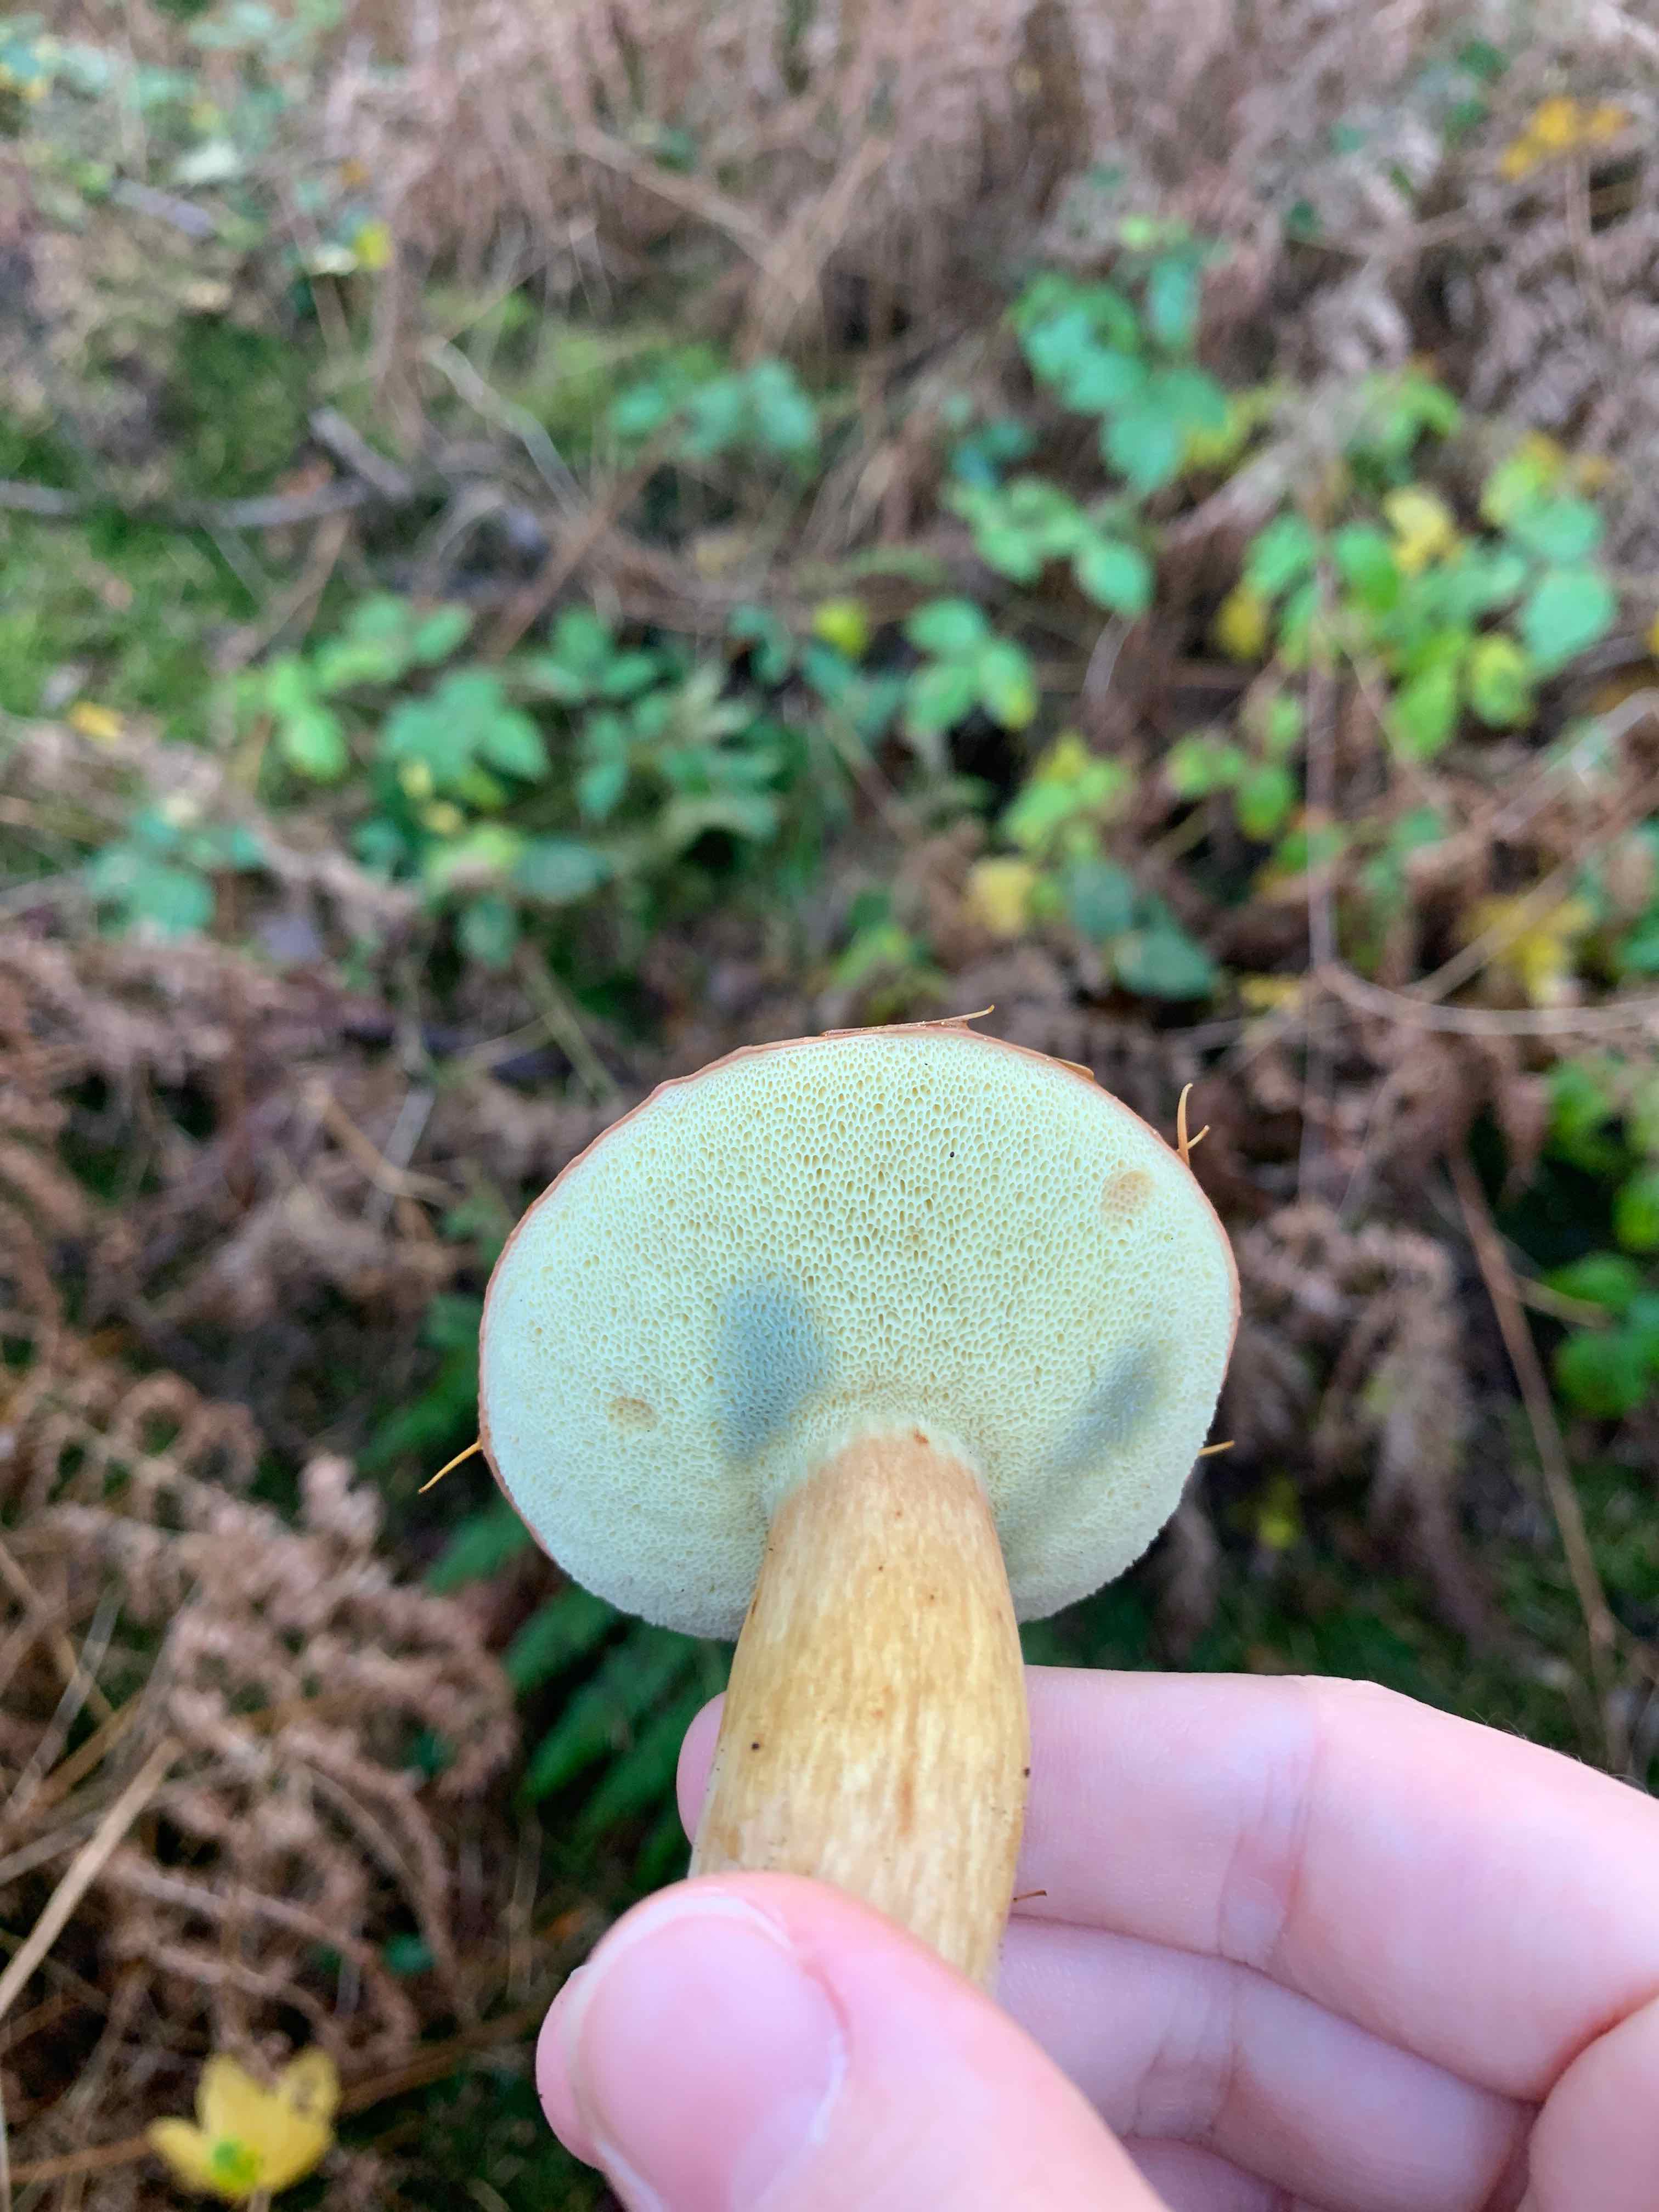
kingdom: Fungi
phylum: Basidiomycota
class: Agaricomycetes
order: Boletales
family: Boletaceae
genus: Imleria
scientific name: Imleria badia
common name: brunstokket rørhat
